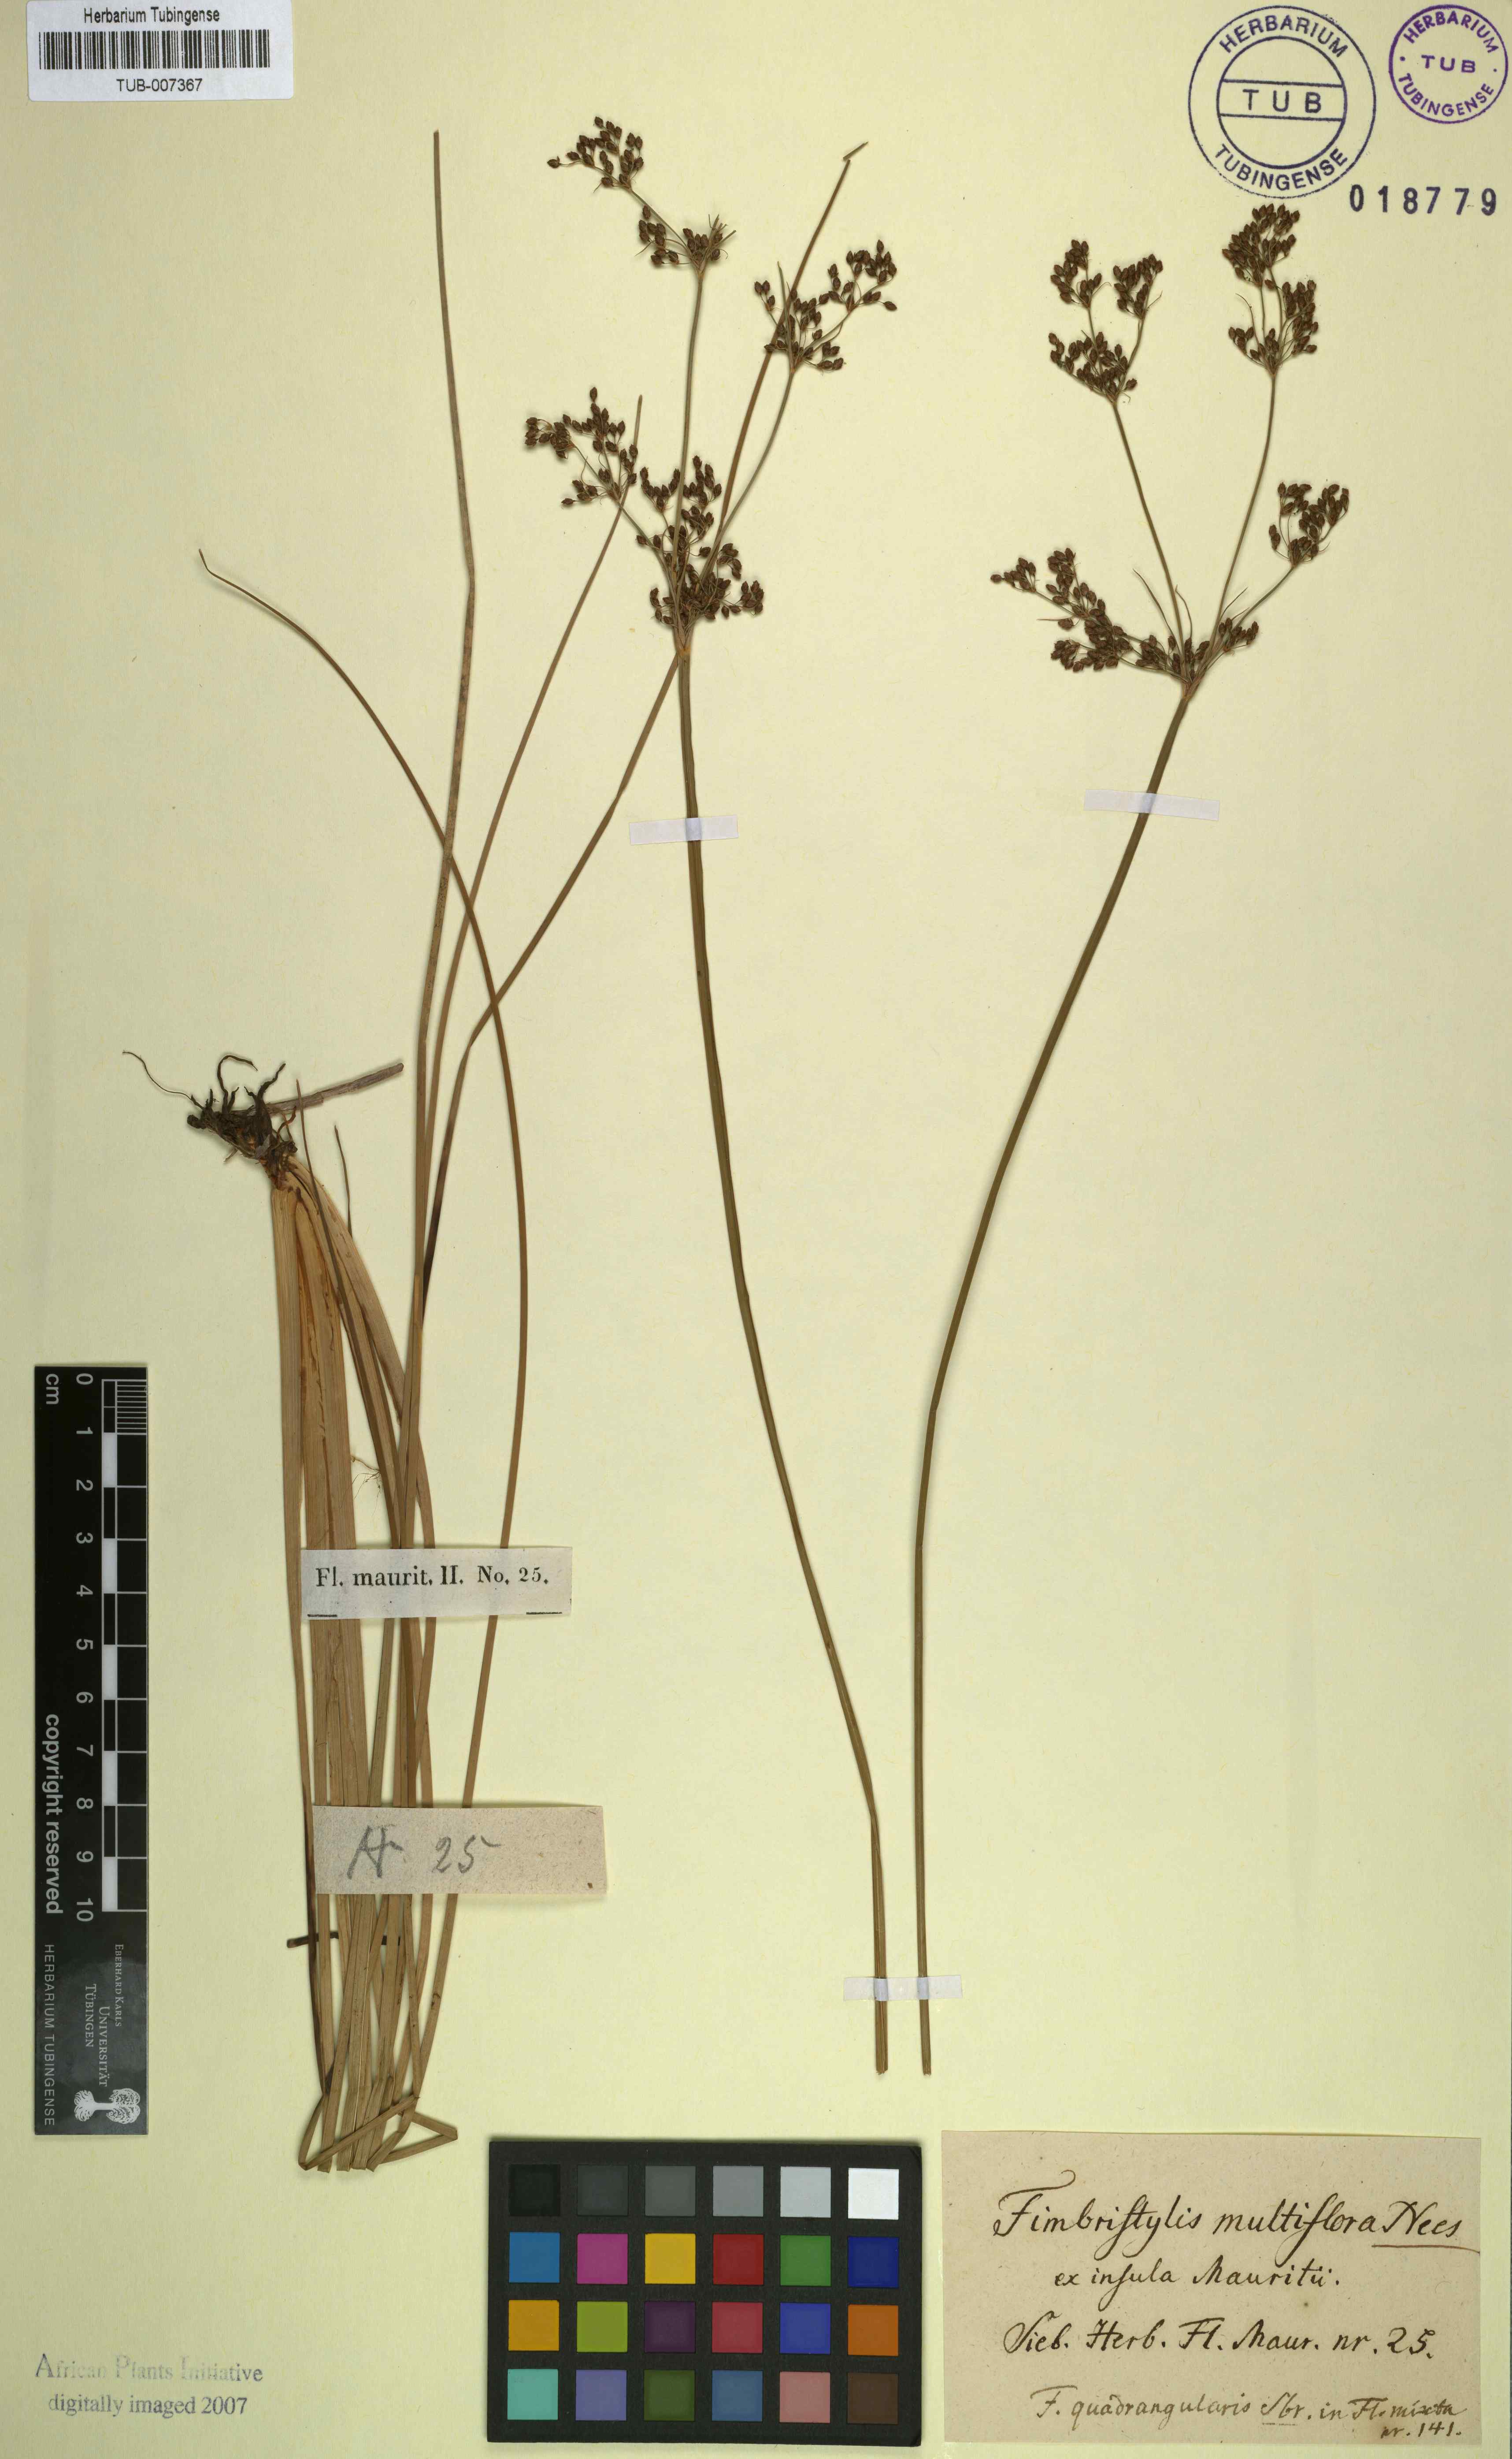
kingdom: Plantae
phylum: Tracheophyta
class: Liliopsida
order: Poales
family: Cyperaceae
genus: Fimbristylis
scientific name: Fimbristylis
